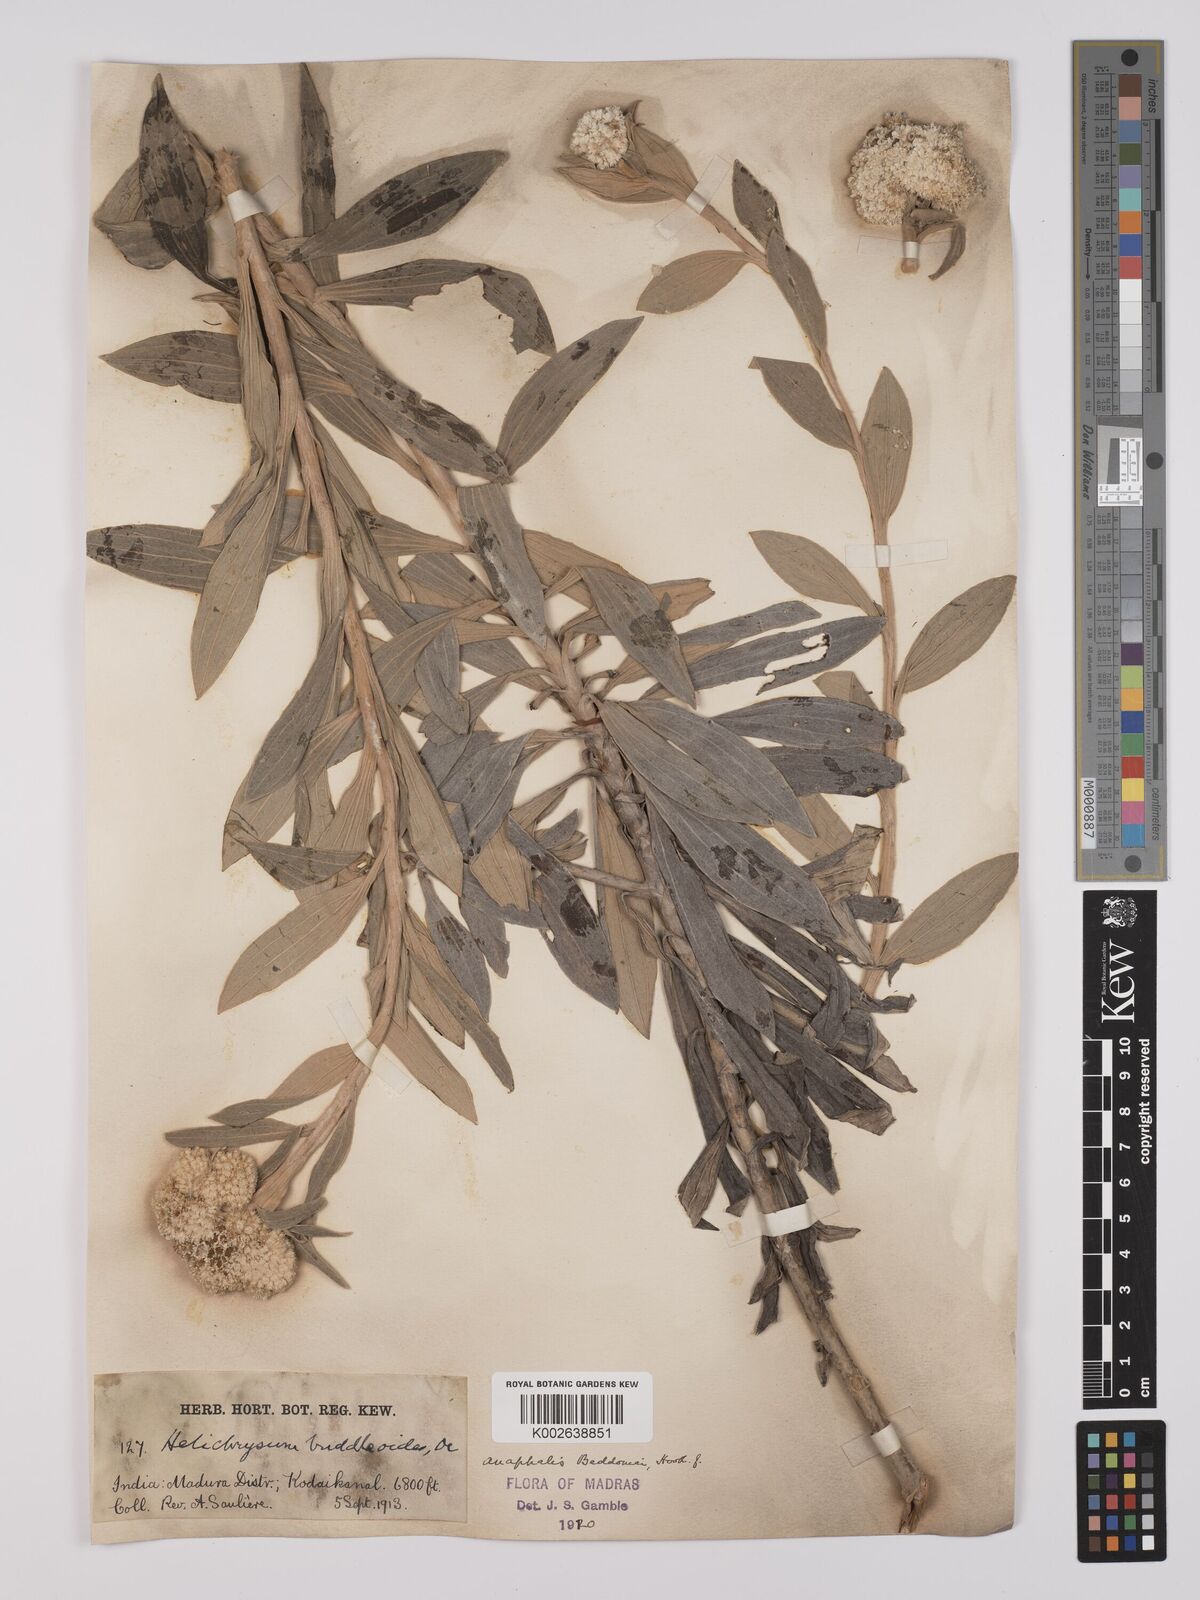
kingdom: Plantae
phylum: Tracheophyta
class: Magnoliopsida
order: Asterales
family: Asteraceae
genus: Anaphalis
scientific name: Anaphalis beddomei
